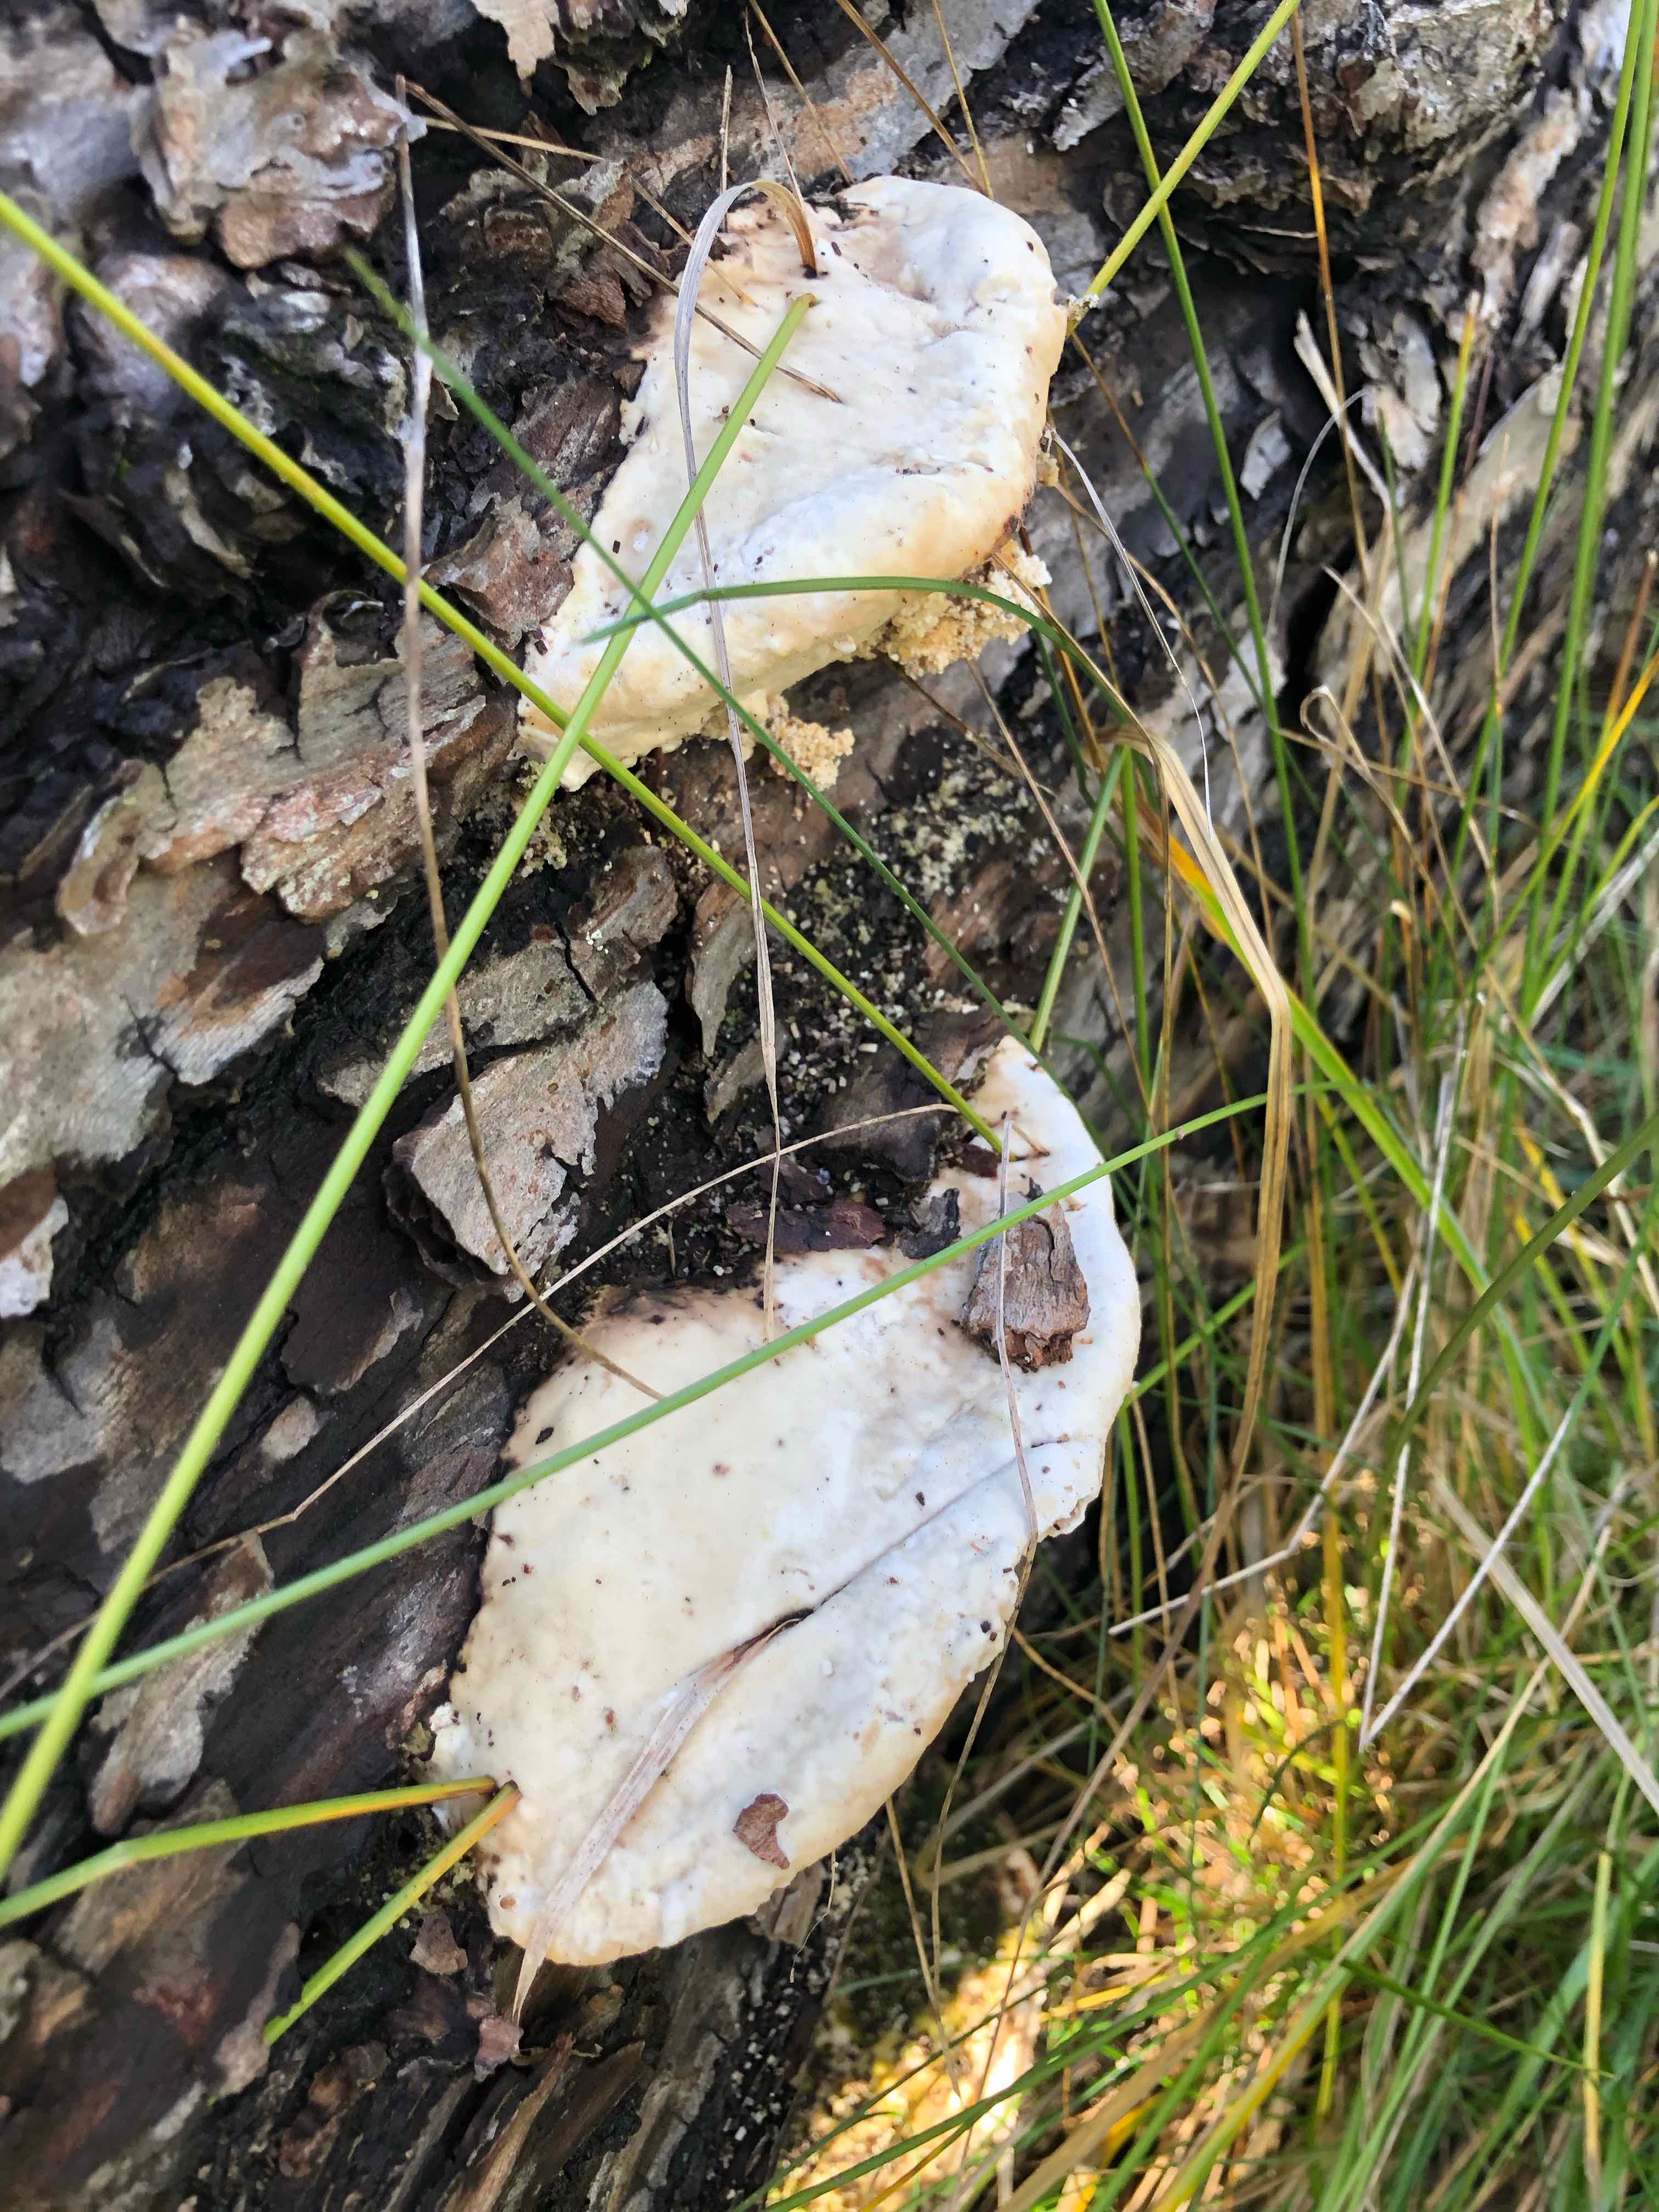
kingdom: Fungi
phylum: Basidiomycota
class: Agaricomycetes
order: Polyporales
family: Polyporaceae
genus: Trametes
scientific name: Trametes gibbosa
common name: puklet læderporesvamp
